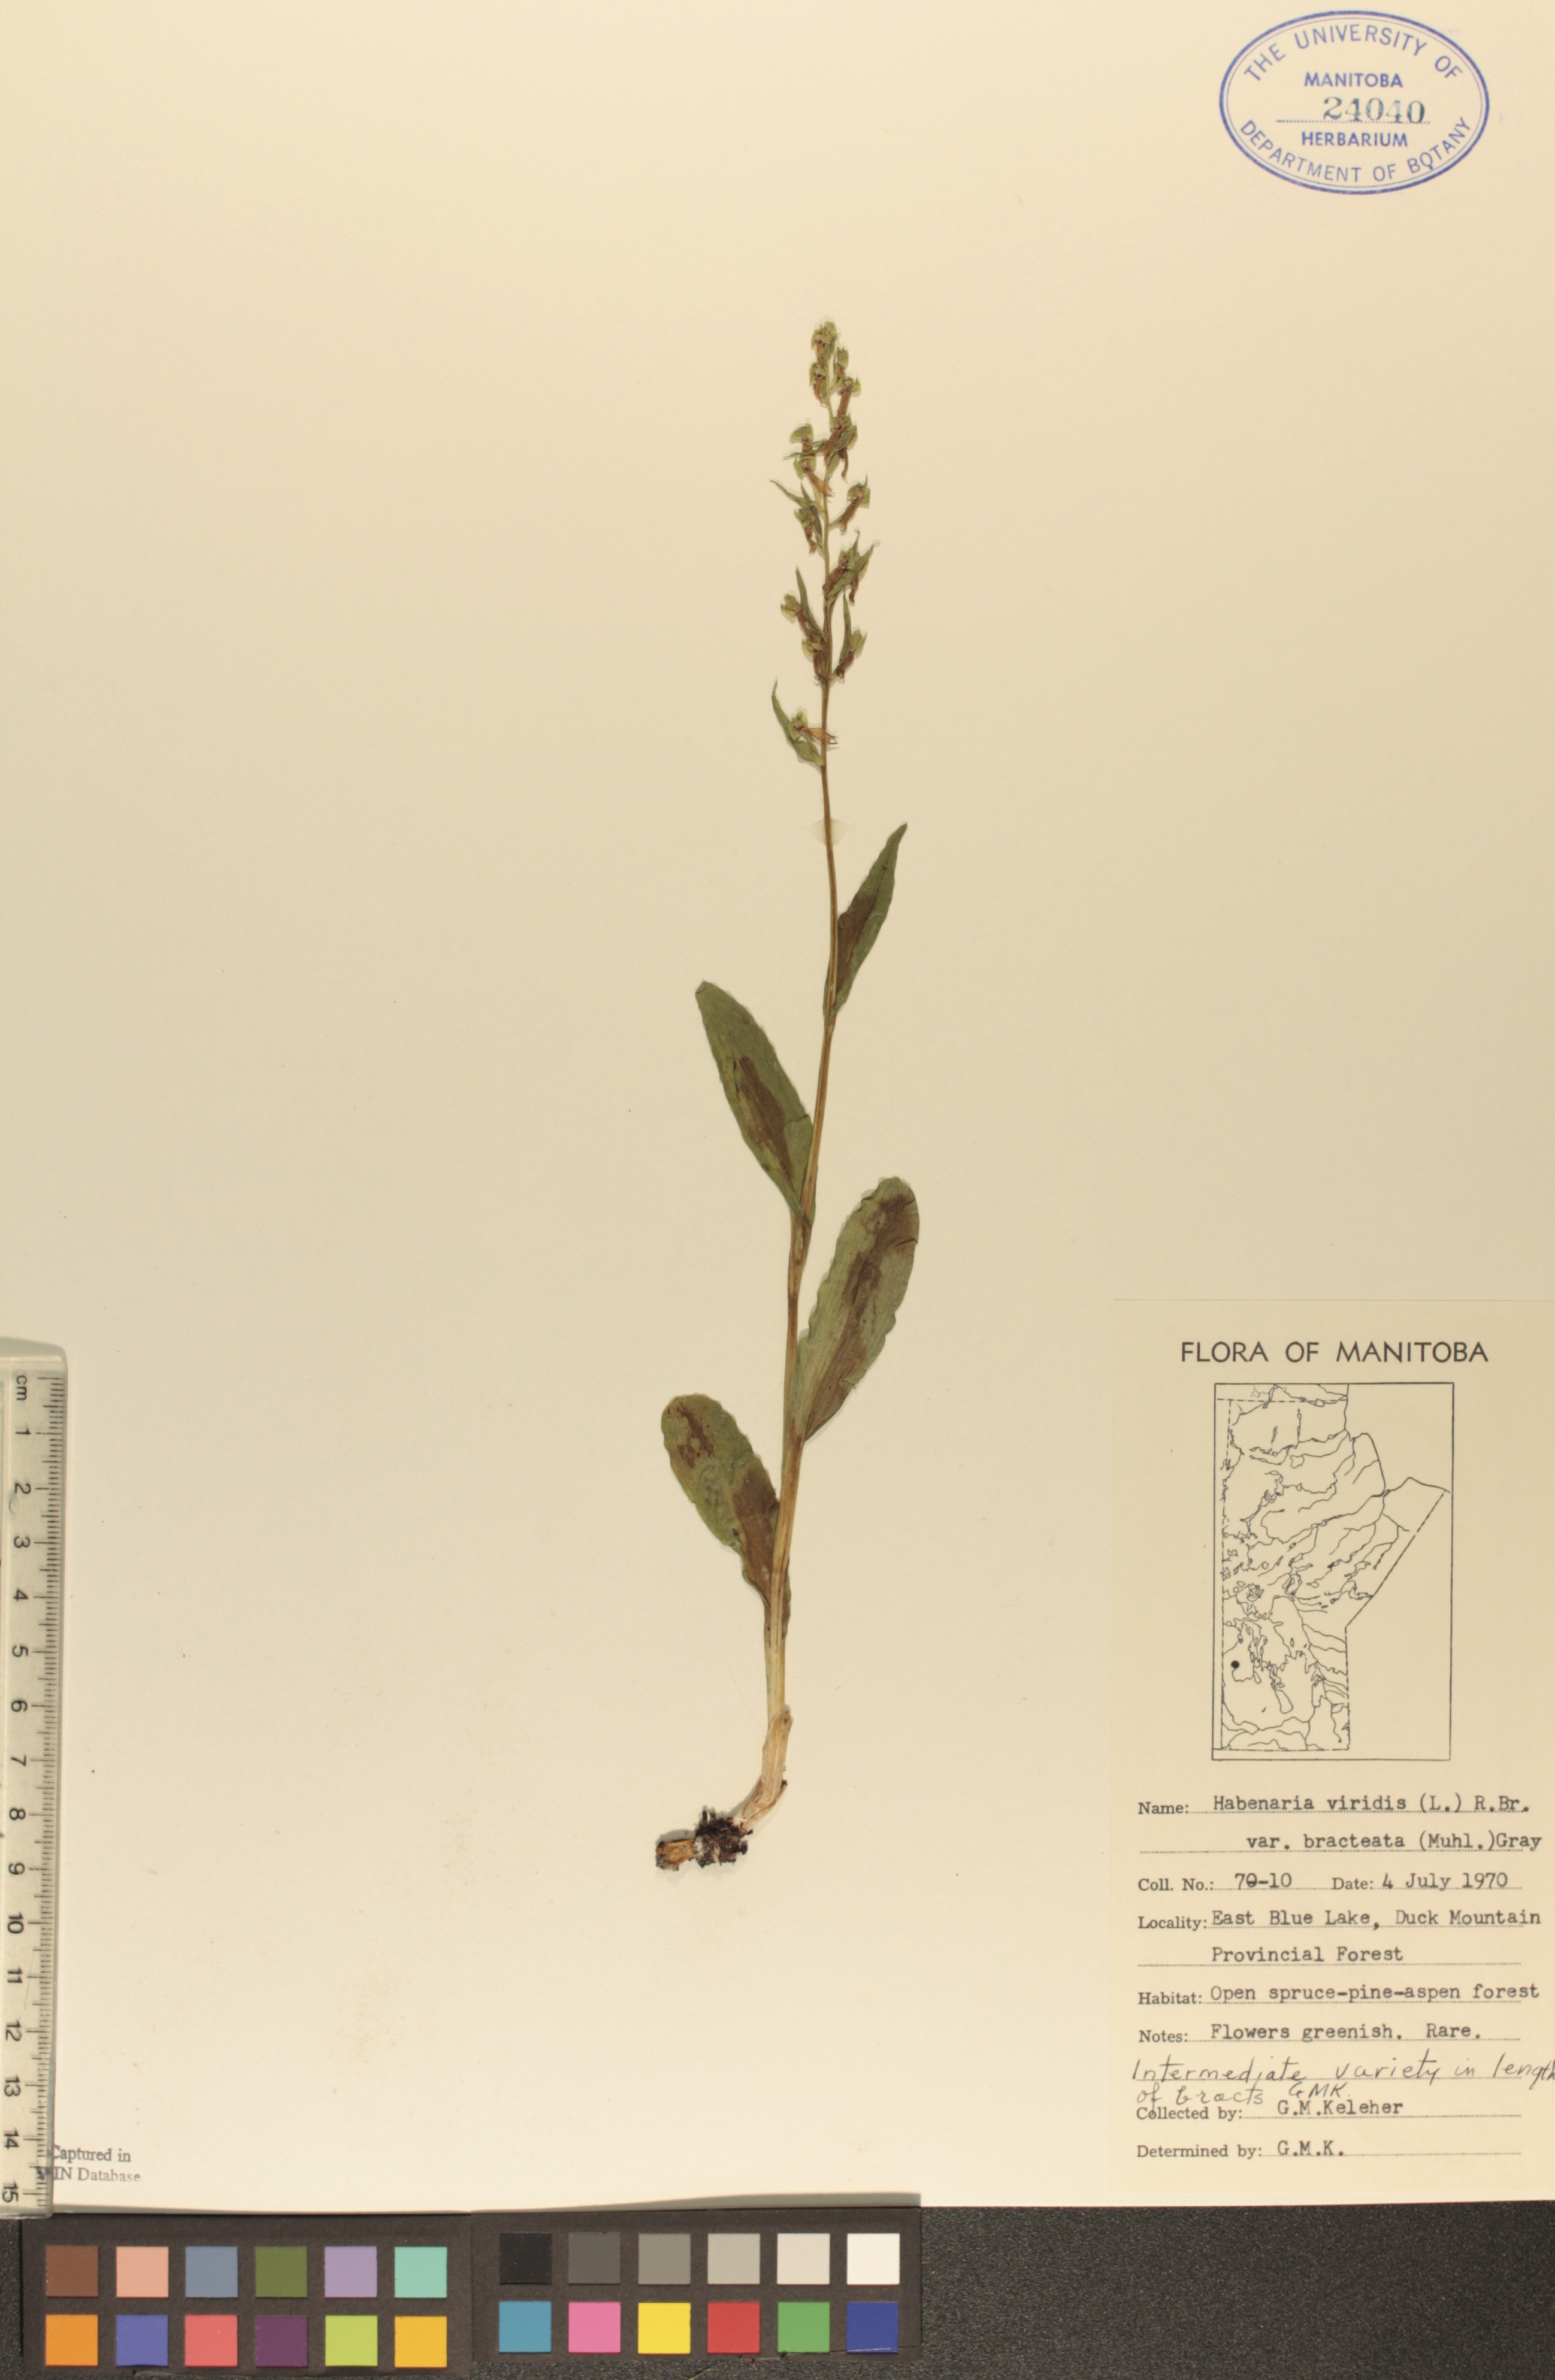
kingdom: Plantae
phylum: Tracheophyta
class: Liliopsida
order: Asparagales
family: Orchidaceae
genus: Dactylorhiza
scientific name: Dactylorhiza viridis
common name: Longbract frog orchid
